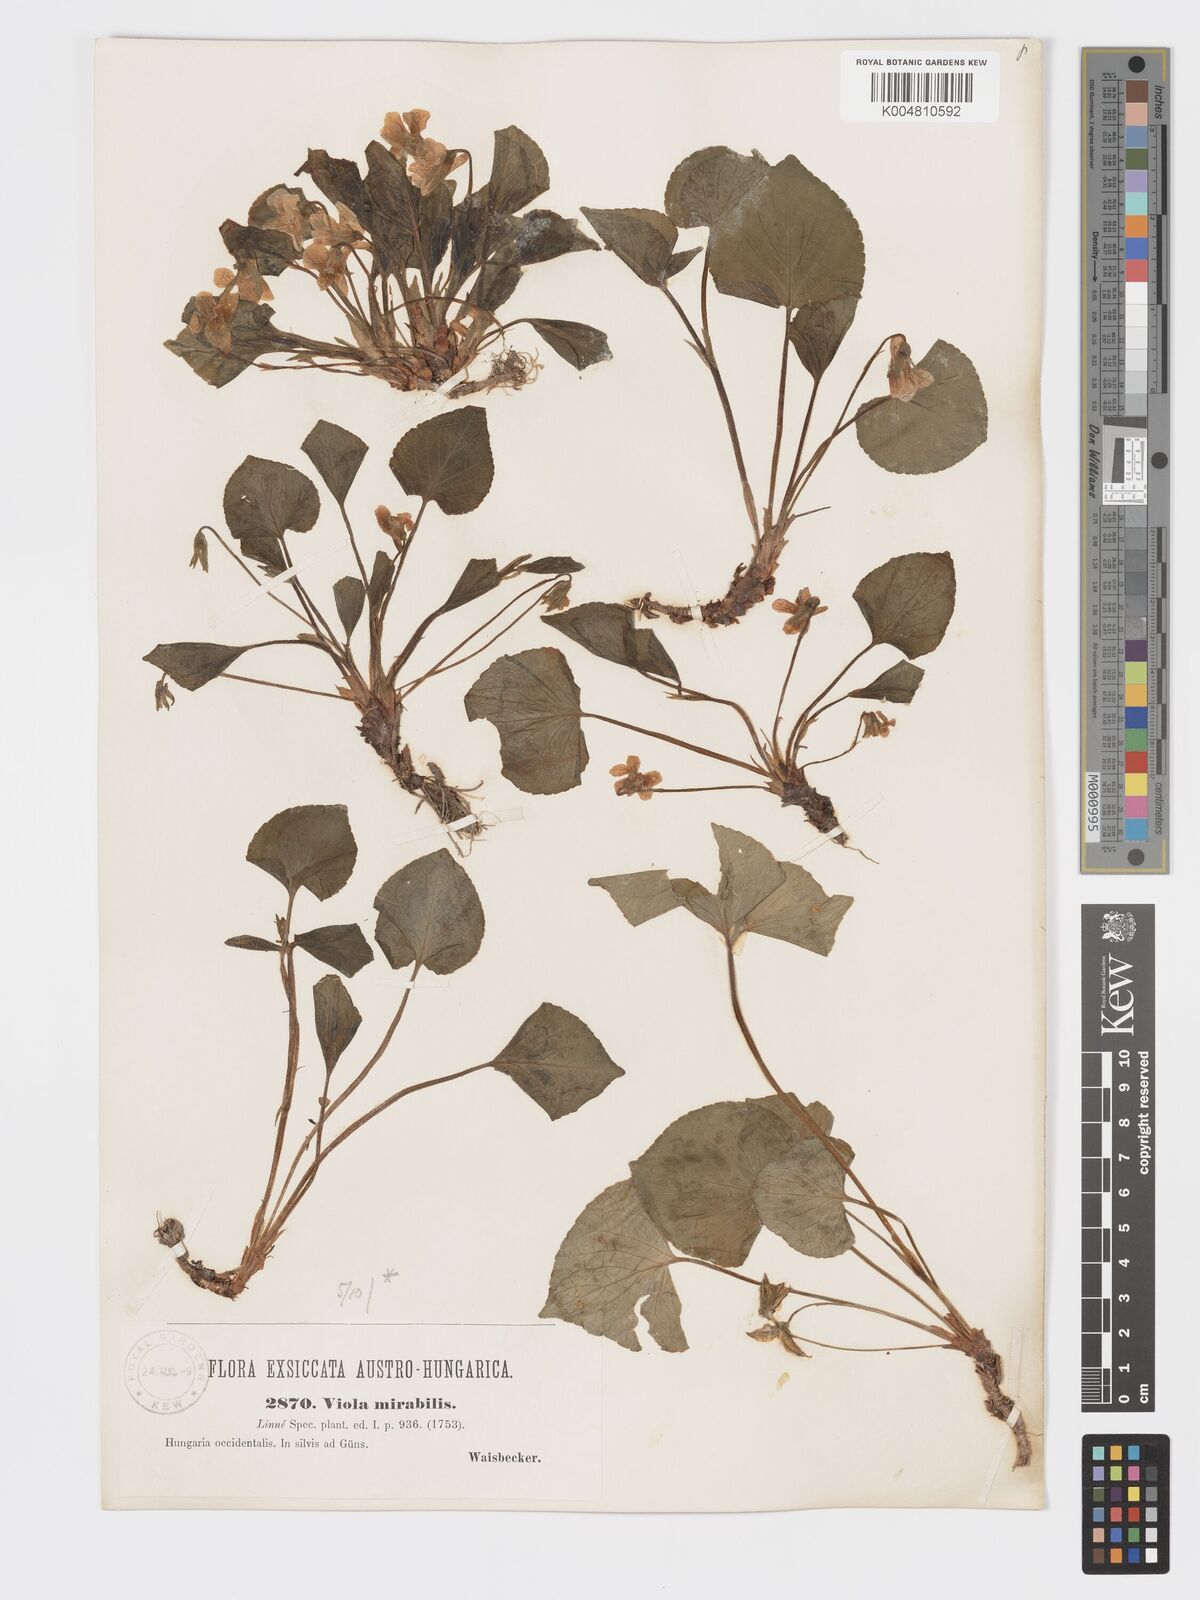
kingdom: Plantae
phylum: Tracheophyta
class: Magnoliopsida
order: Malpighiales
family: Violaceae
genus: Viola
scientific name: Viola mirabilis
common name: Wonder violet
